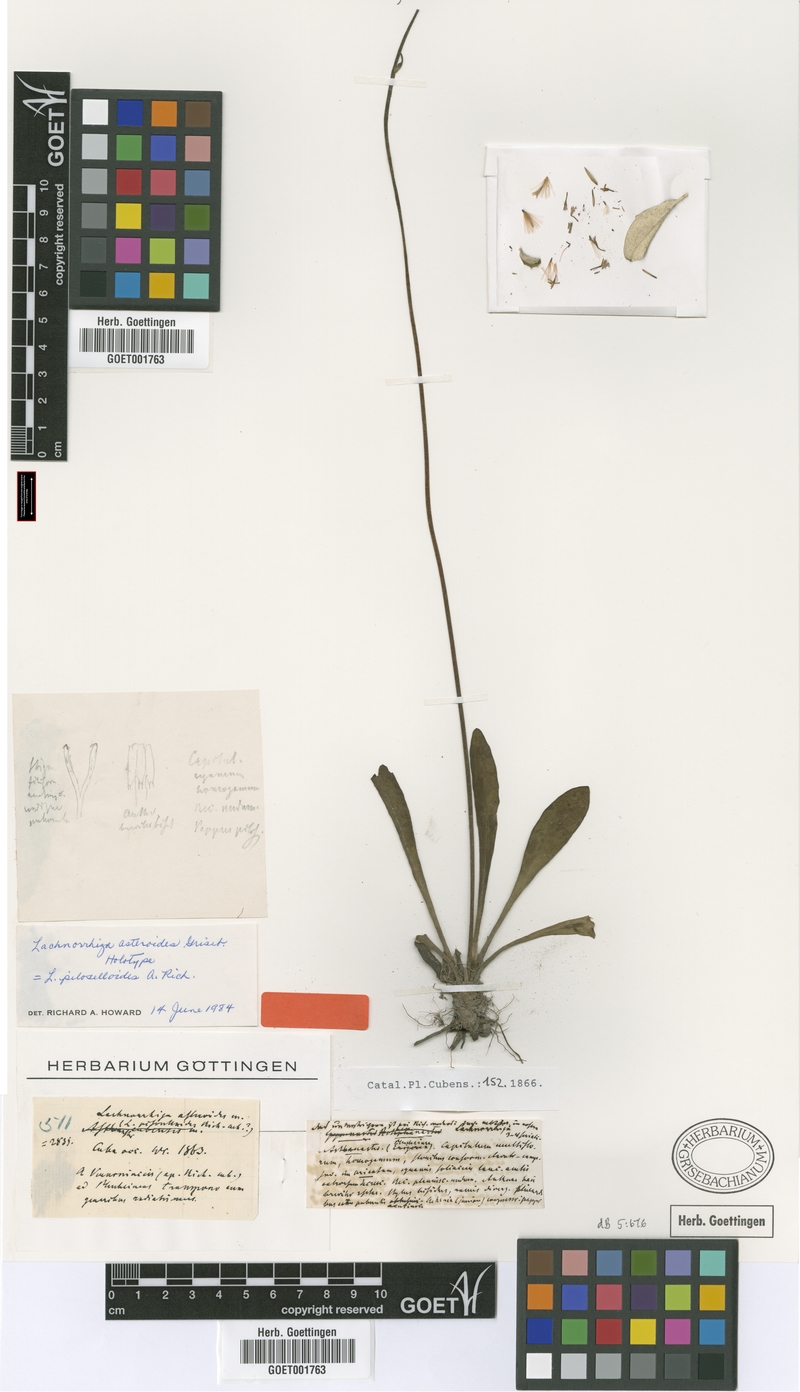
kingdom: Plantae
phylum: Tracheophyta
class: Magnoliopsida
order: Asterales
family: Asteraceae
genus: Lachnorhiza
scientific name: Lachnorhiza piloselloides
